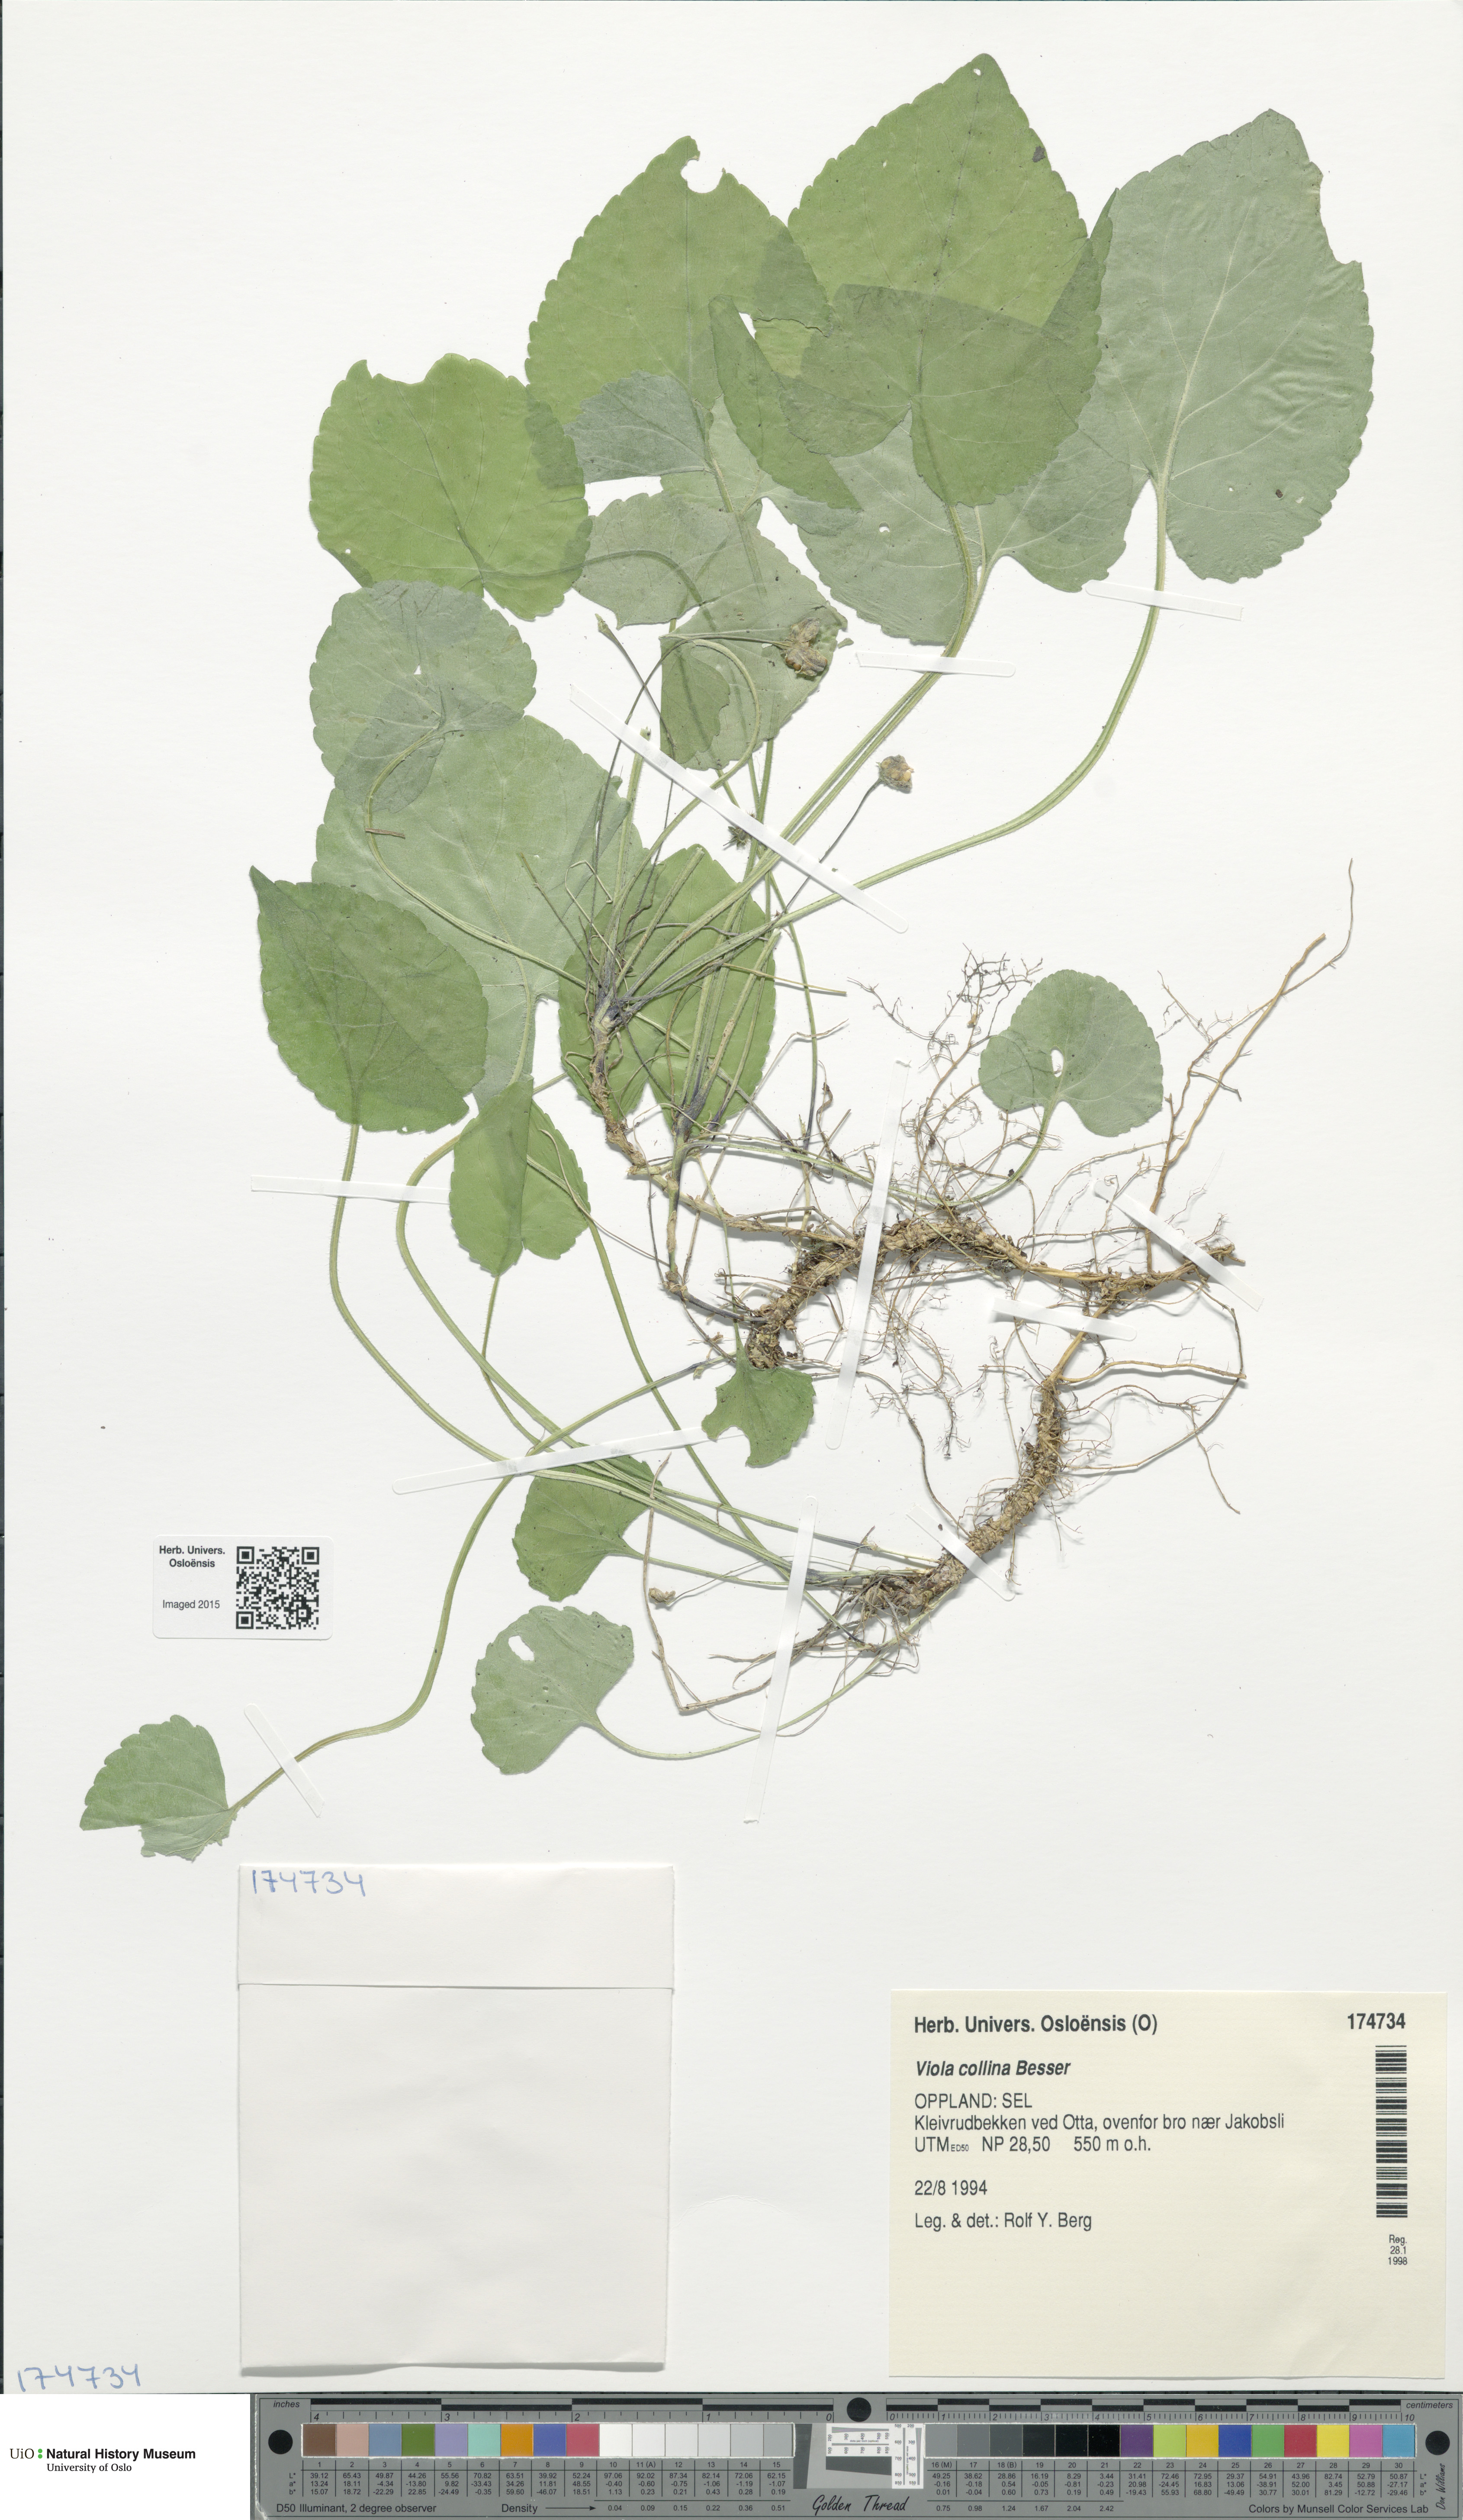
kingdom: Plantae
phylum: Tracheophyta
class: Magnoliopsida
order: Malpighiales
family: Violaceae
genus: Viola
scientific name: Viola collina
